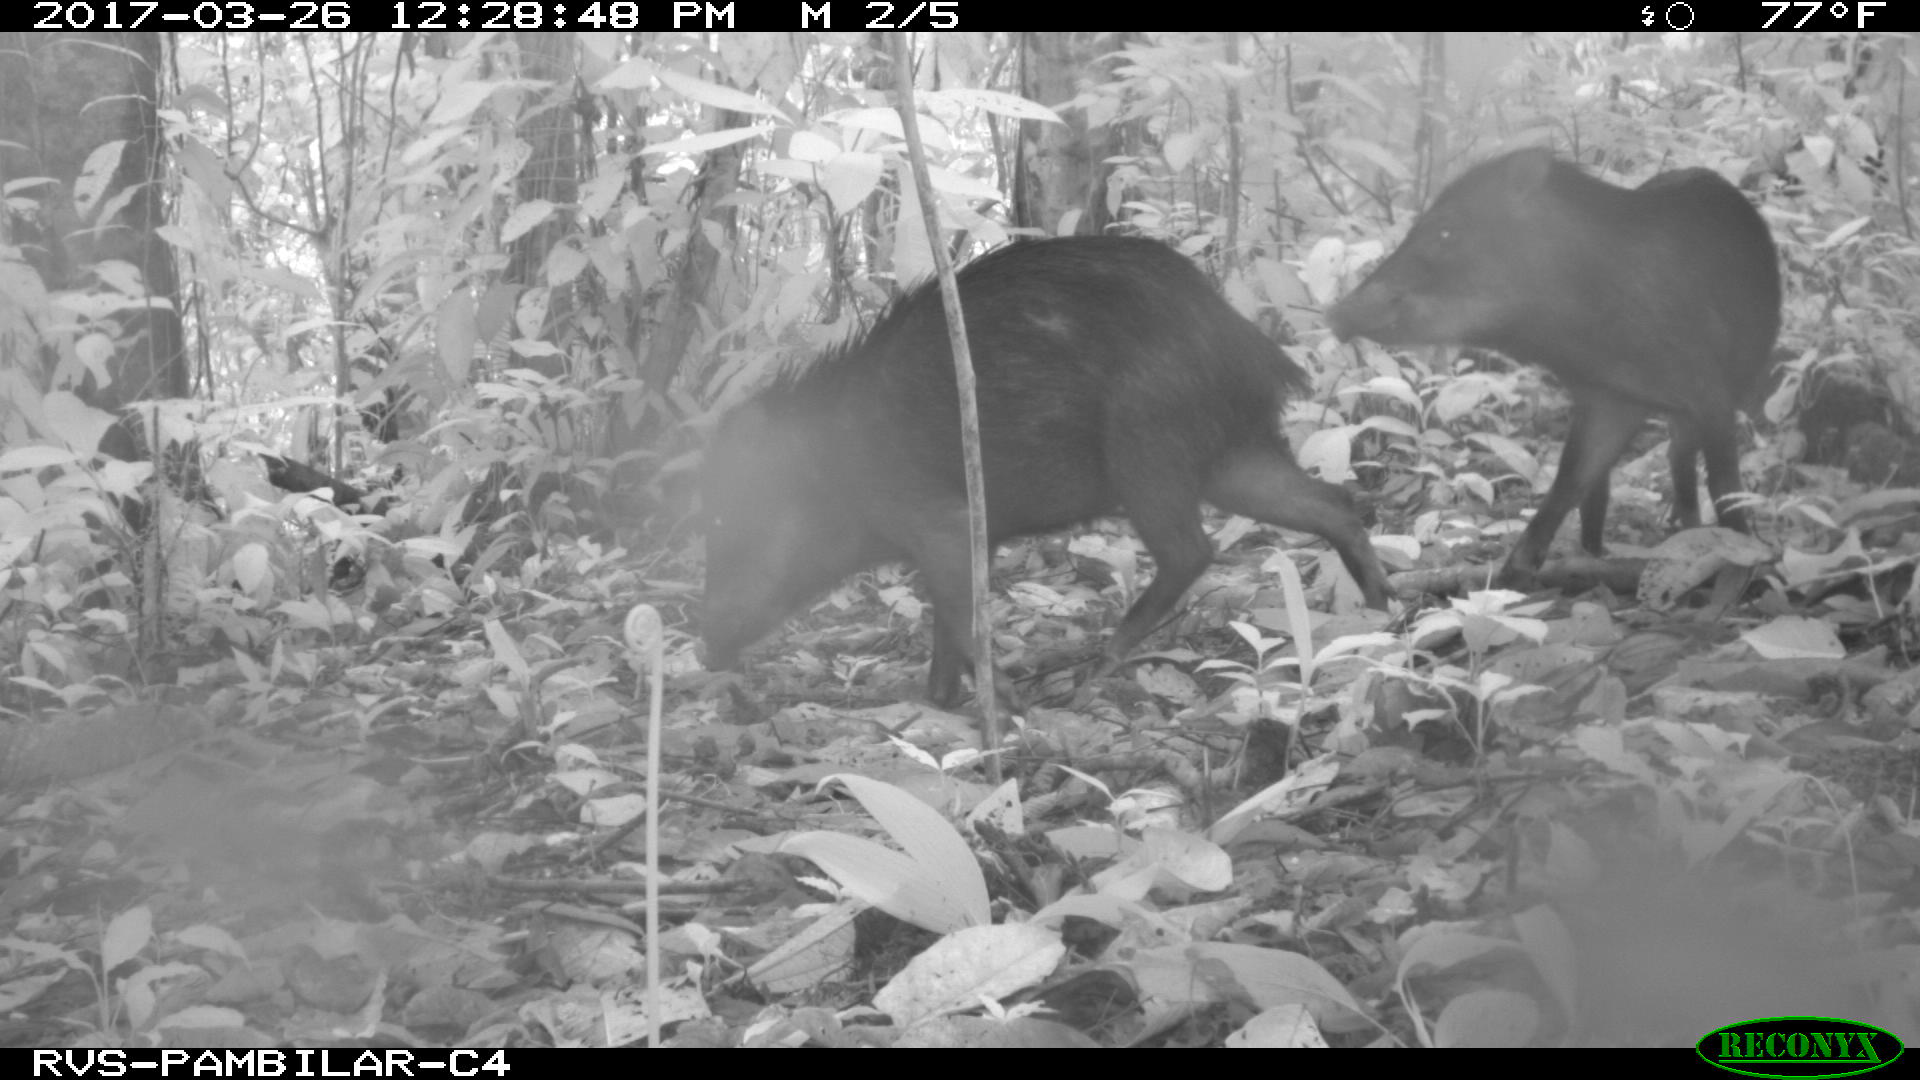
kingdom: Animalia
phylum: Chordata
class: Mammalia
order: Artiodactyla
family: Tayassuidae
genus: Tayassu
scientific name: Tayassu pecari
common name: White-lipped peccary
